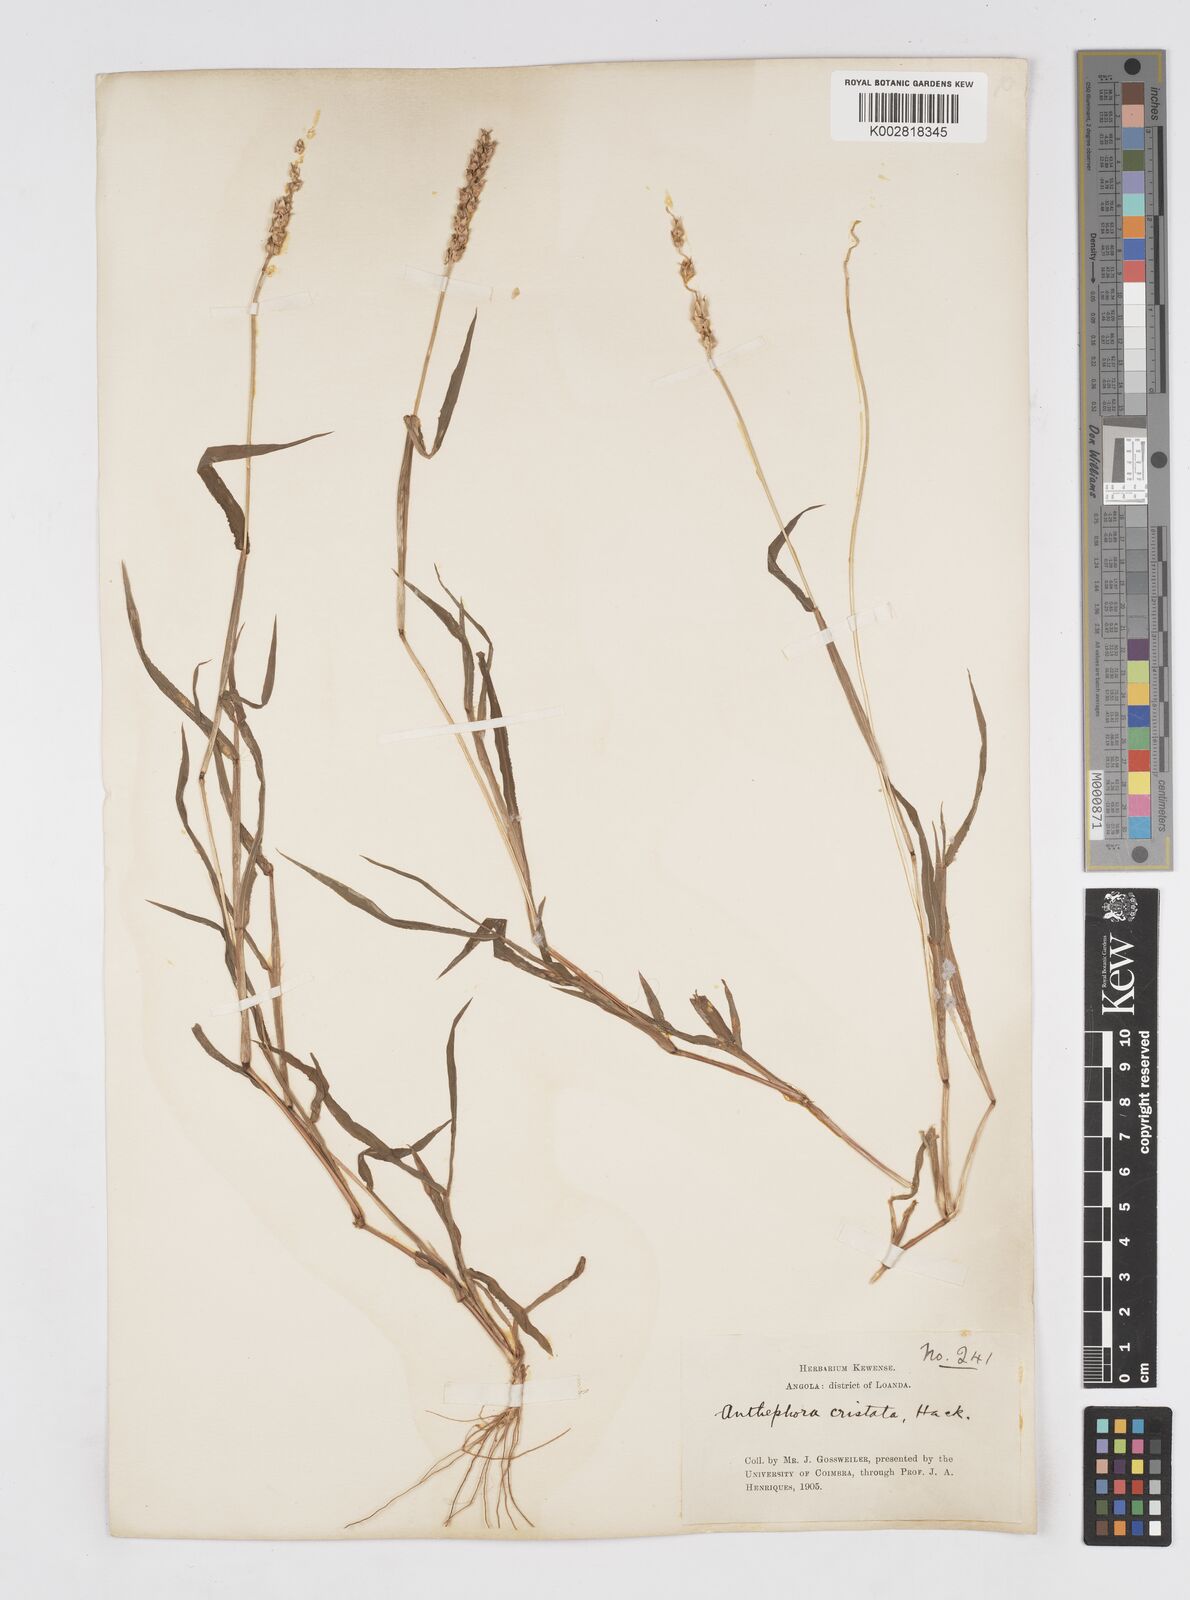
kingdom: Plantae
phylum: Tracheophyta
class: Liliopsida
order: Poales
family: Poaceae
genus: Anthephora
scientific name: Anthephora cristata
